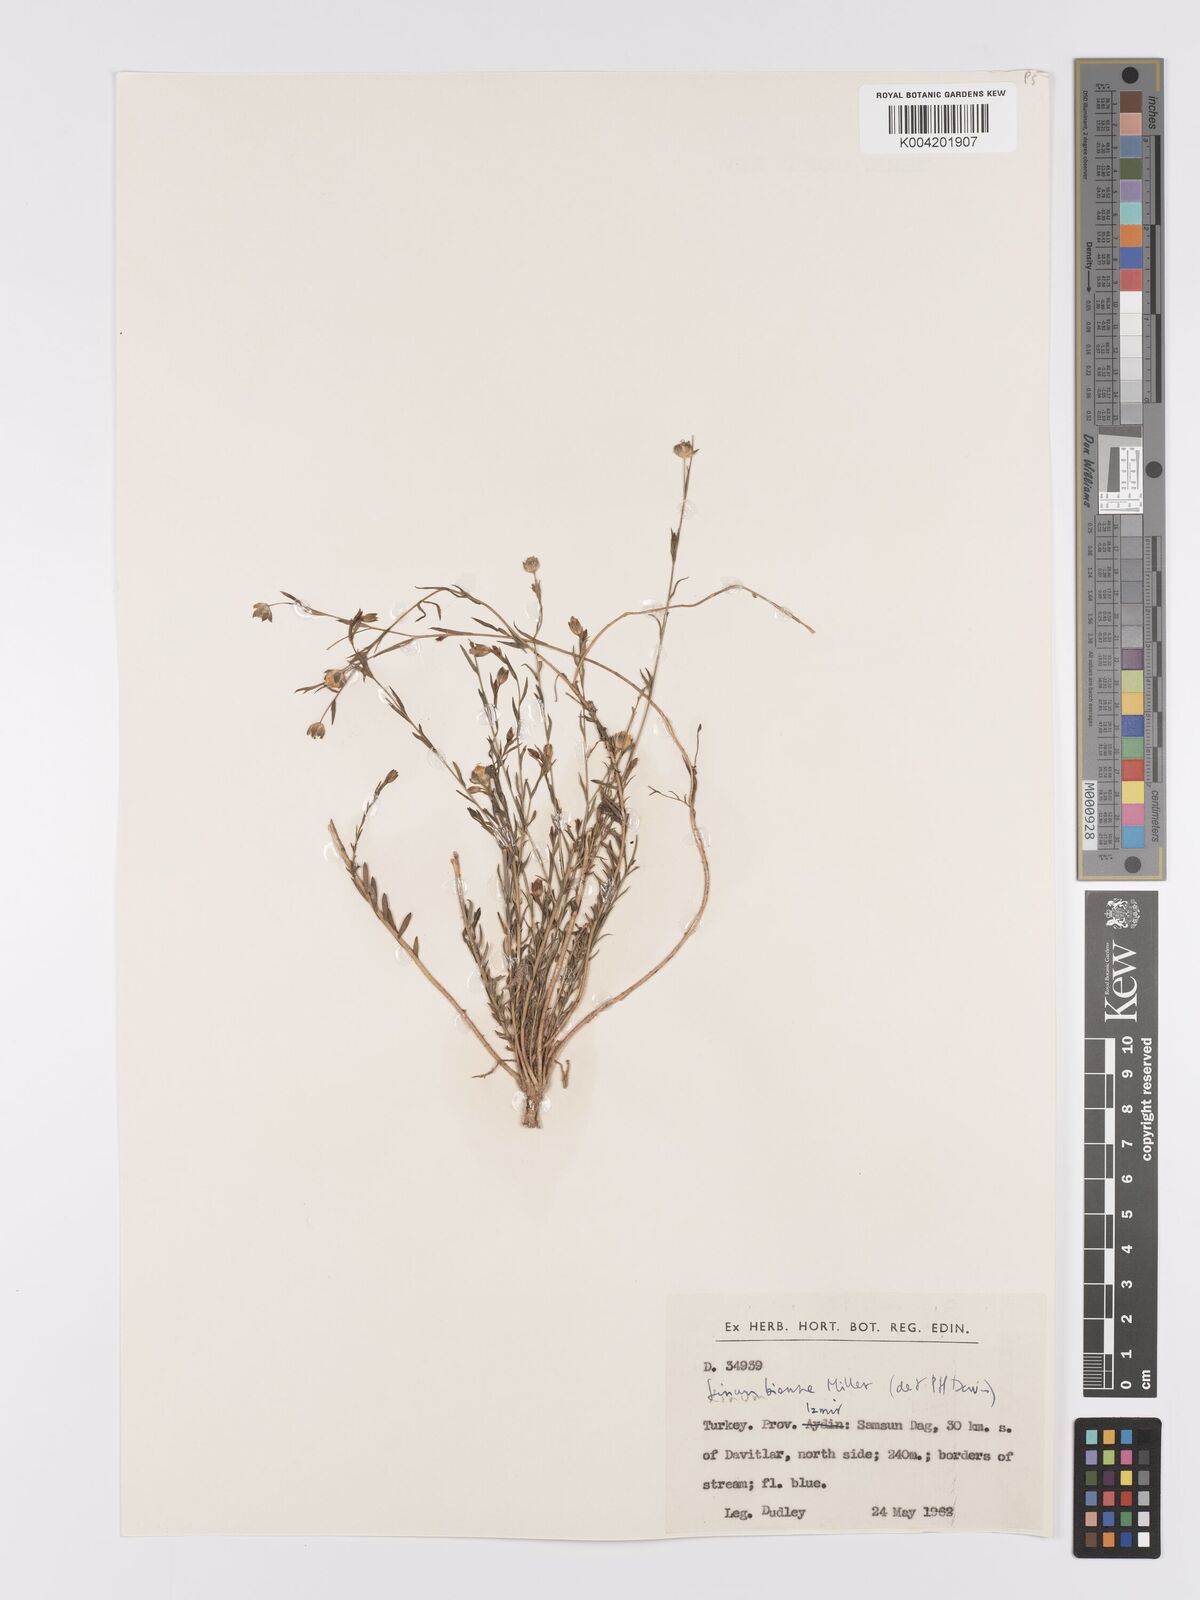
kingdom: Plantae
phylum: Tracheophyta
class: Magnoliopsida
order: Malpighiales
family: Linaceae
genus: Linum
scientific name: Linum
